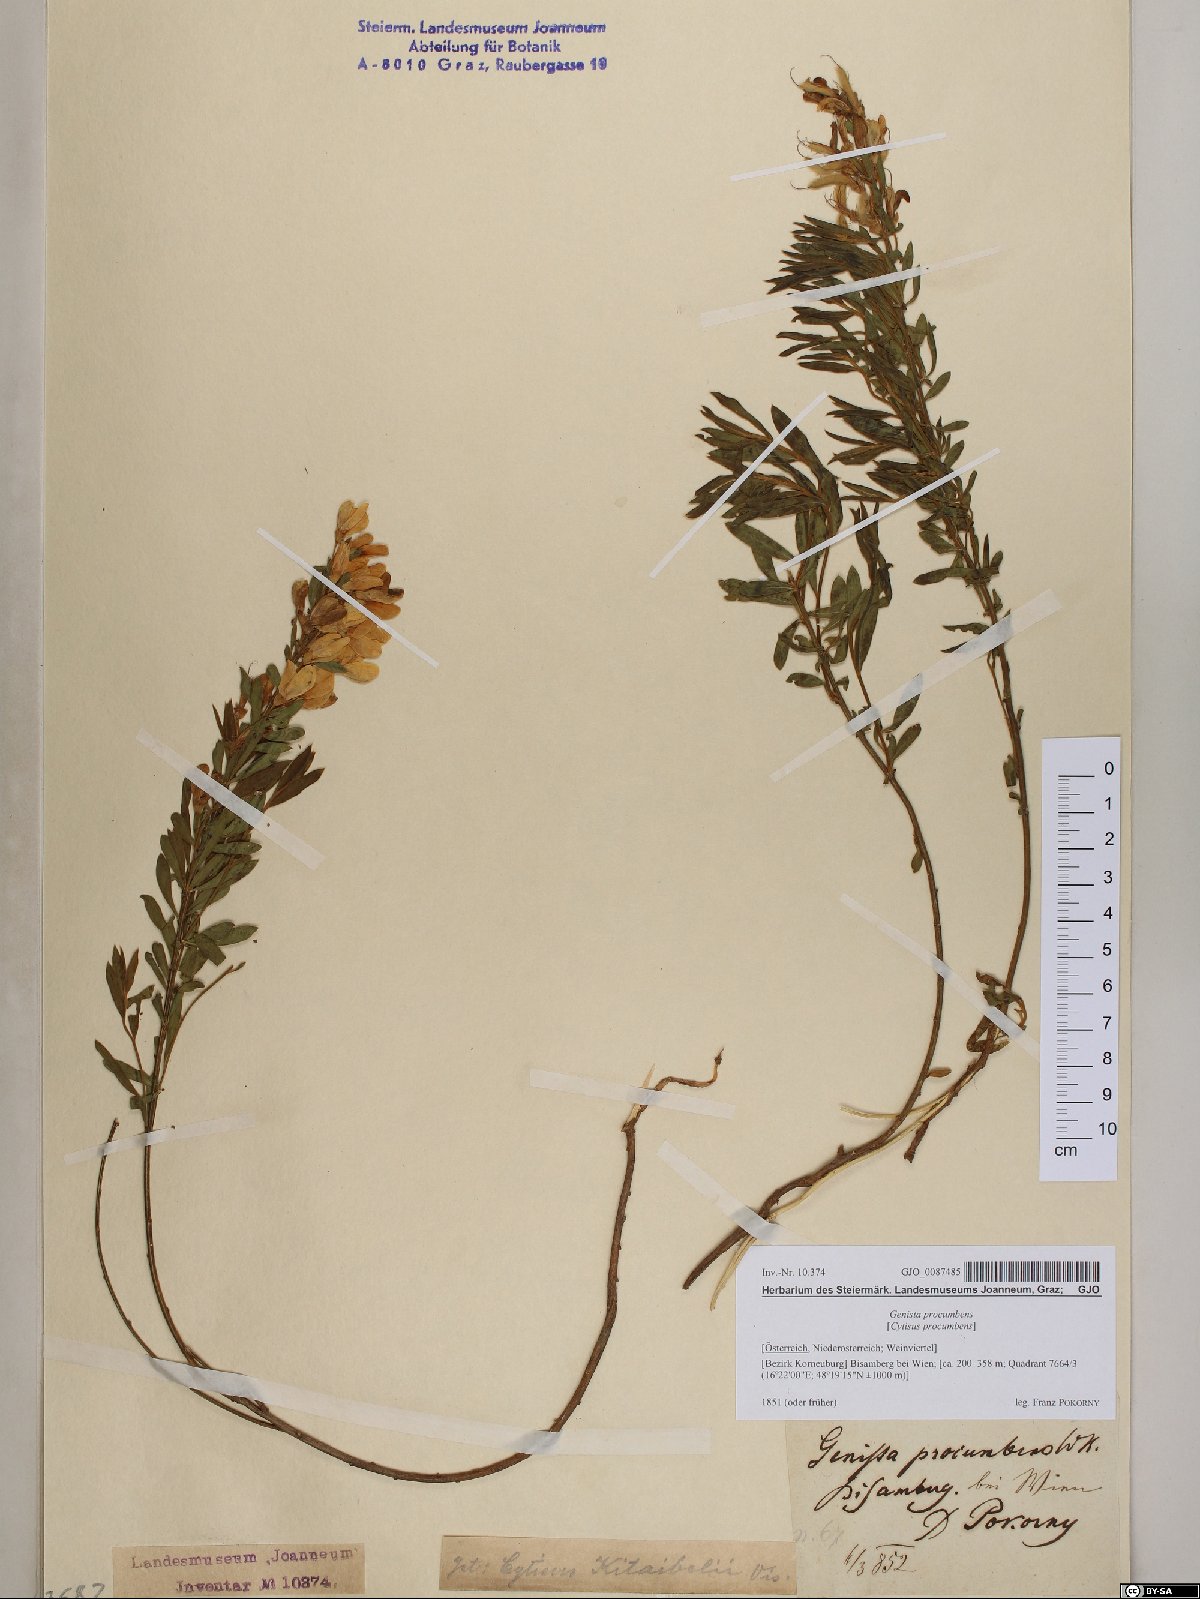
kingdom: Plantae
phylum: Tracheophyta
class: Magnoliopsida
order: Fabales
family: Fabaceae
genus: Cytisus
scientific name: Cytisus procumbens
